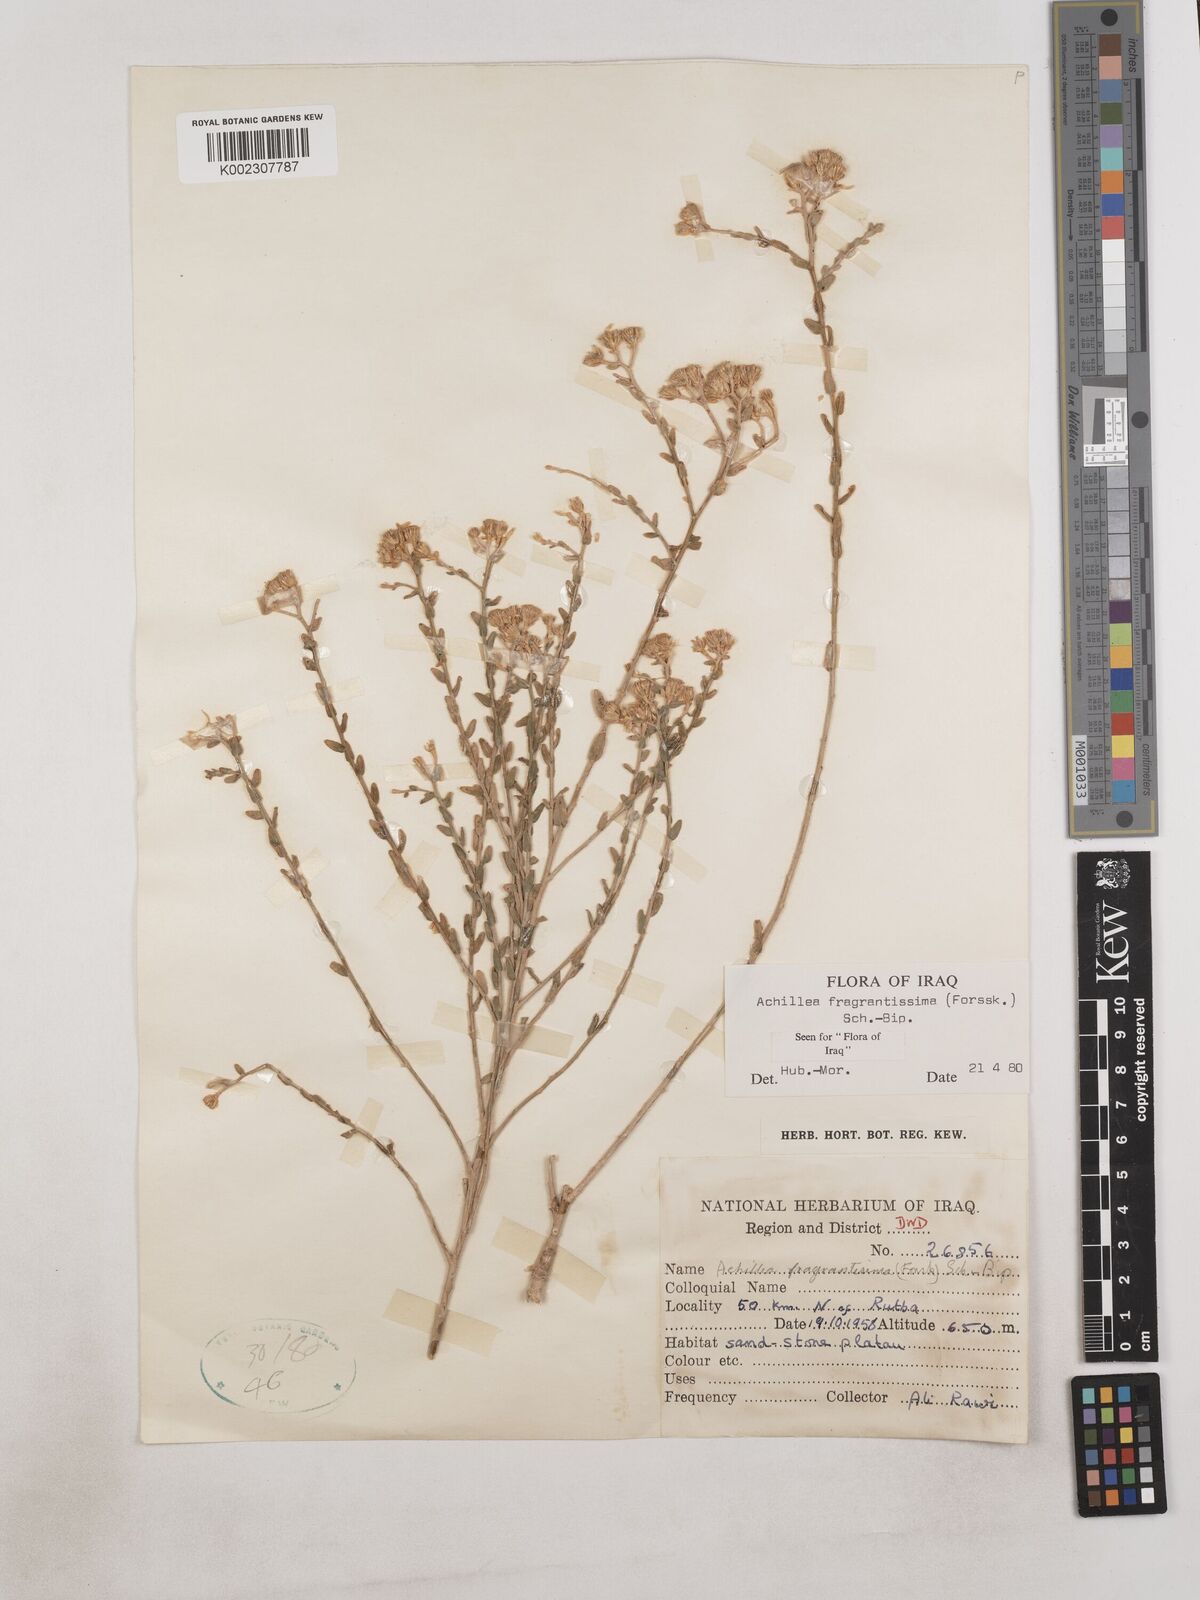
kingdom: Plantae
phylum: Tracheophyta
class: Magnoliopsida
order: Asterales
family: Asteraceae
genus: Achillea
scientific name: Achillea fragrantissima
